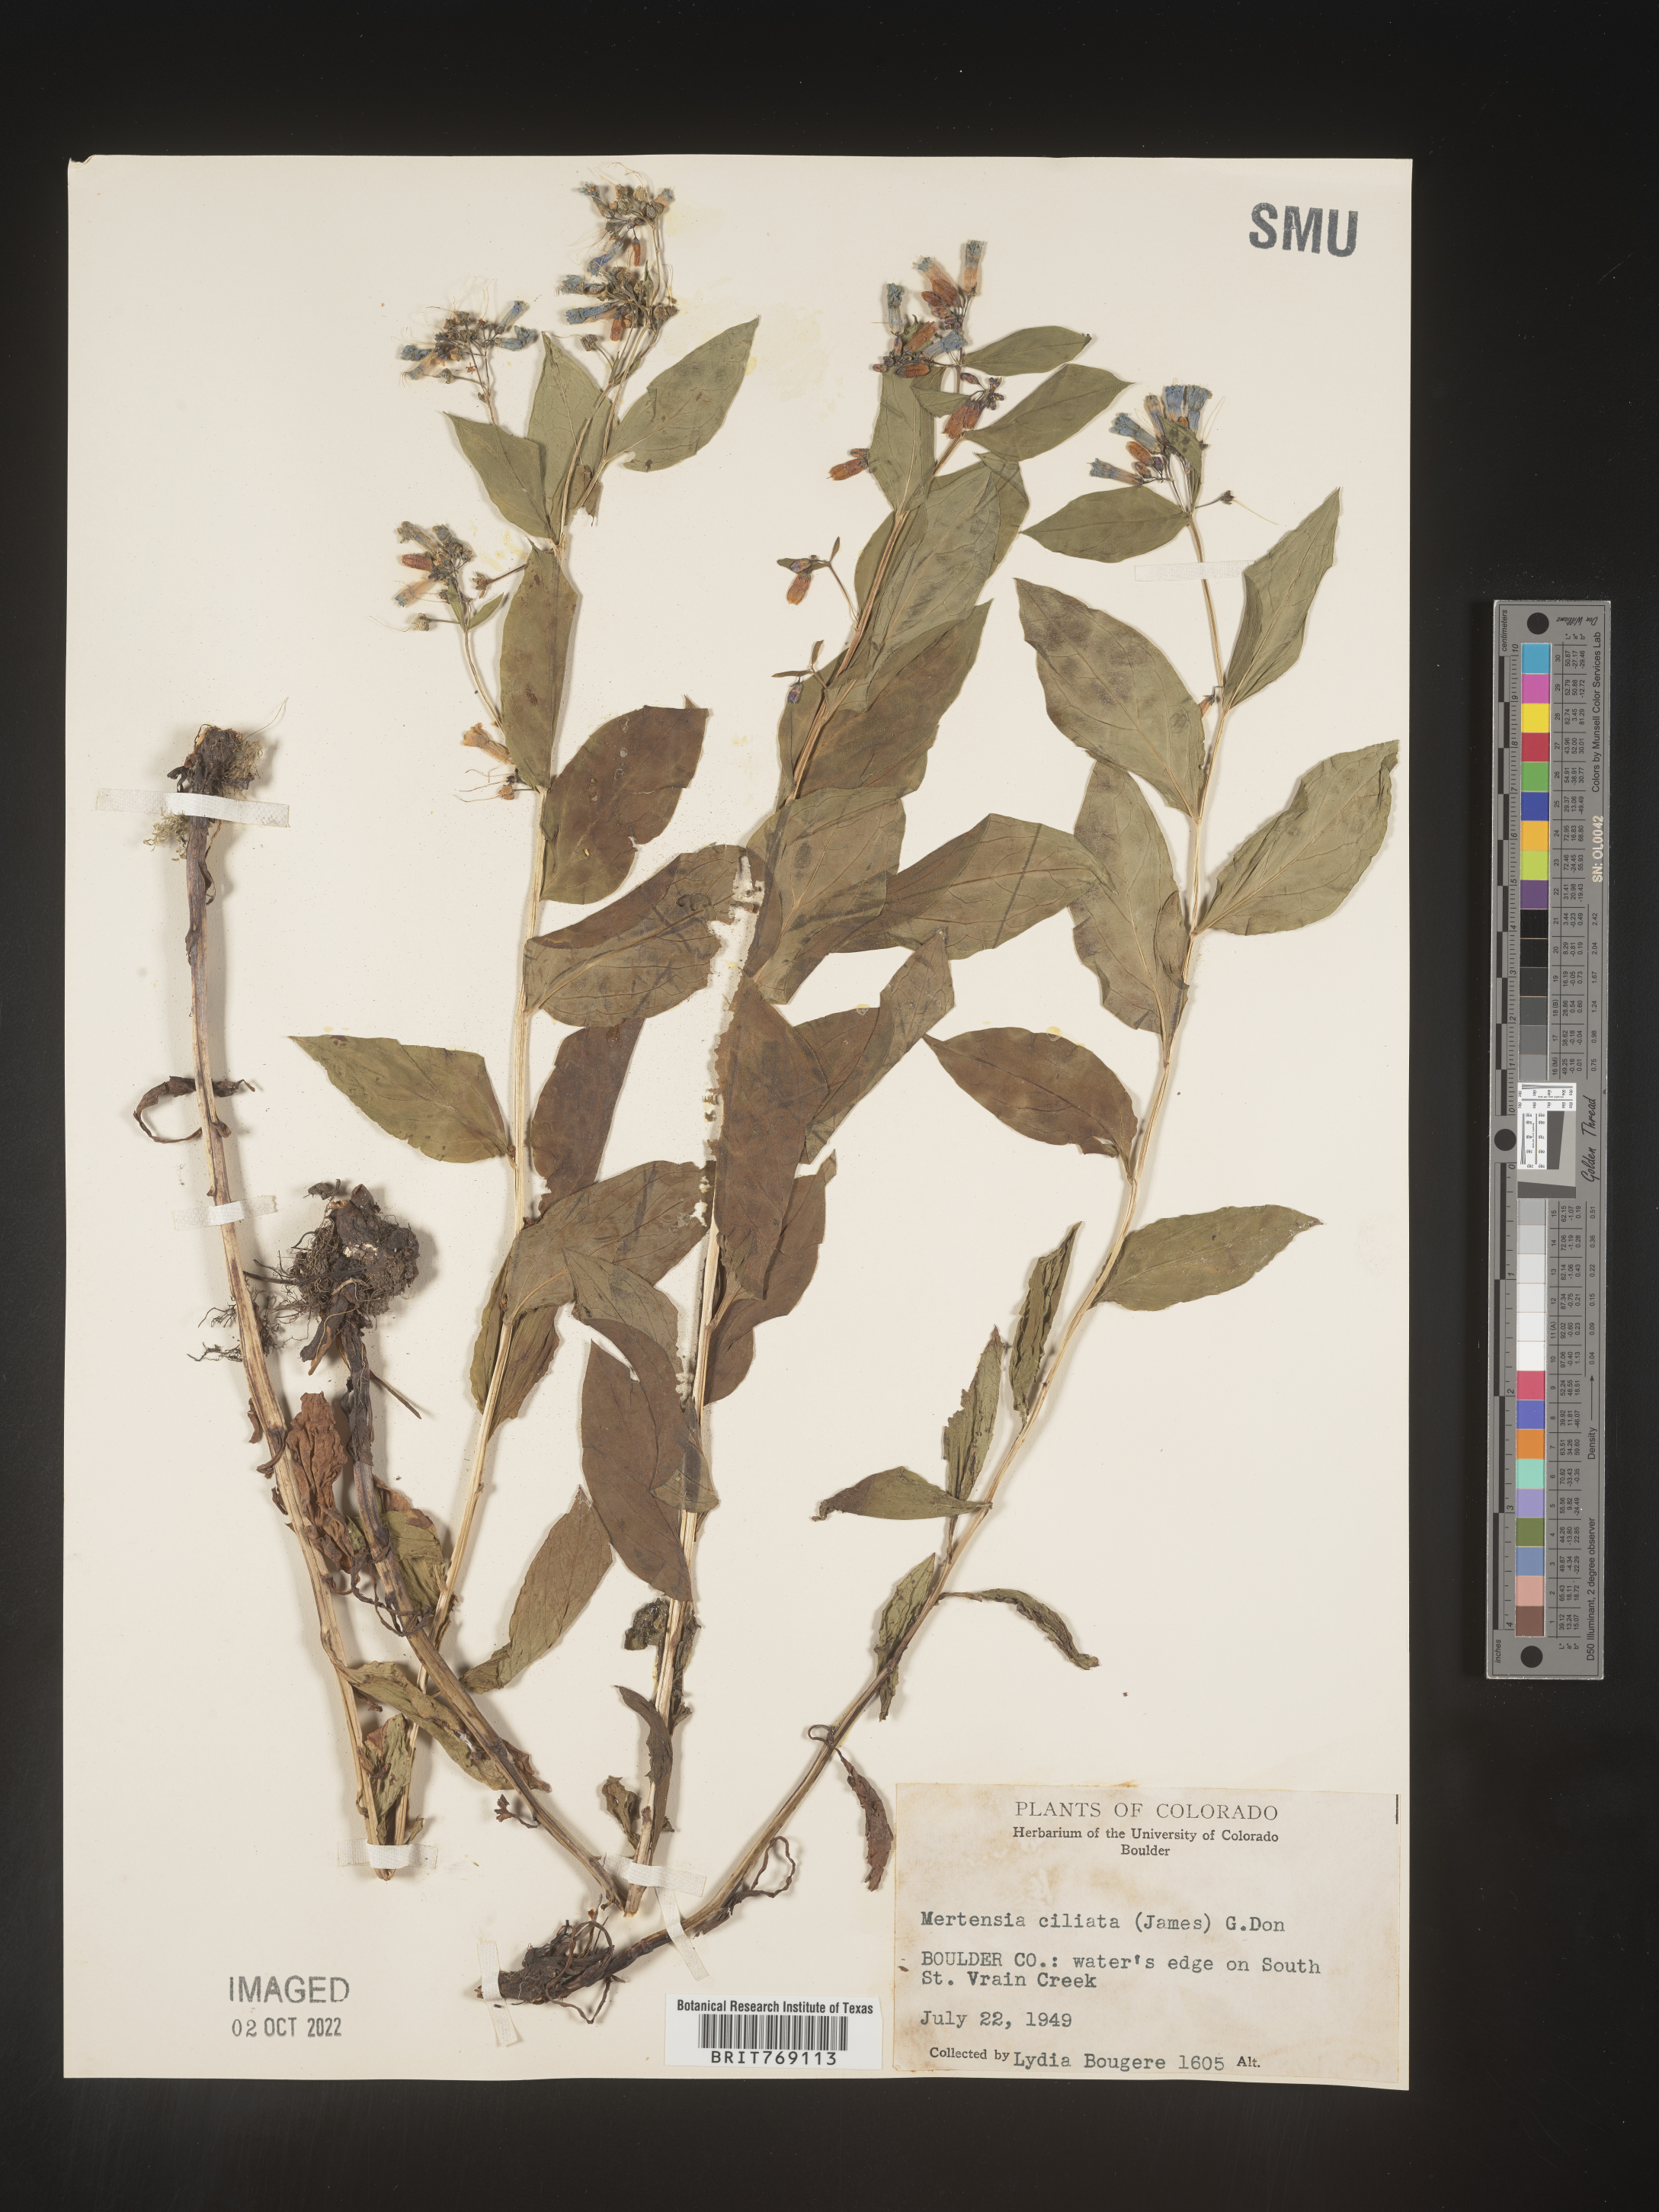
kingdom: Plantae
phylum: Tracheophyta
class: Magnoliopsida
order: Boraginales
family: Boraginaceae
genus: Mertensia
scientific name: Mertensia
